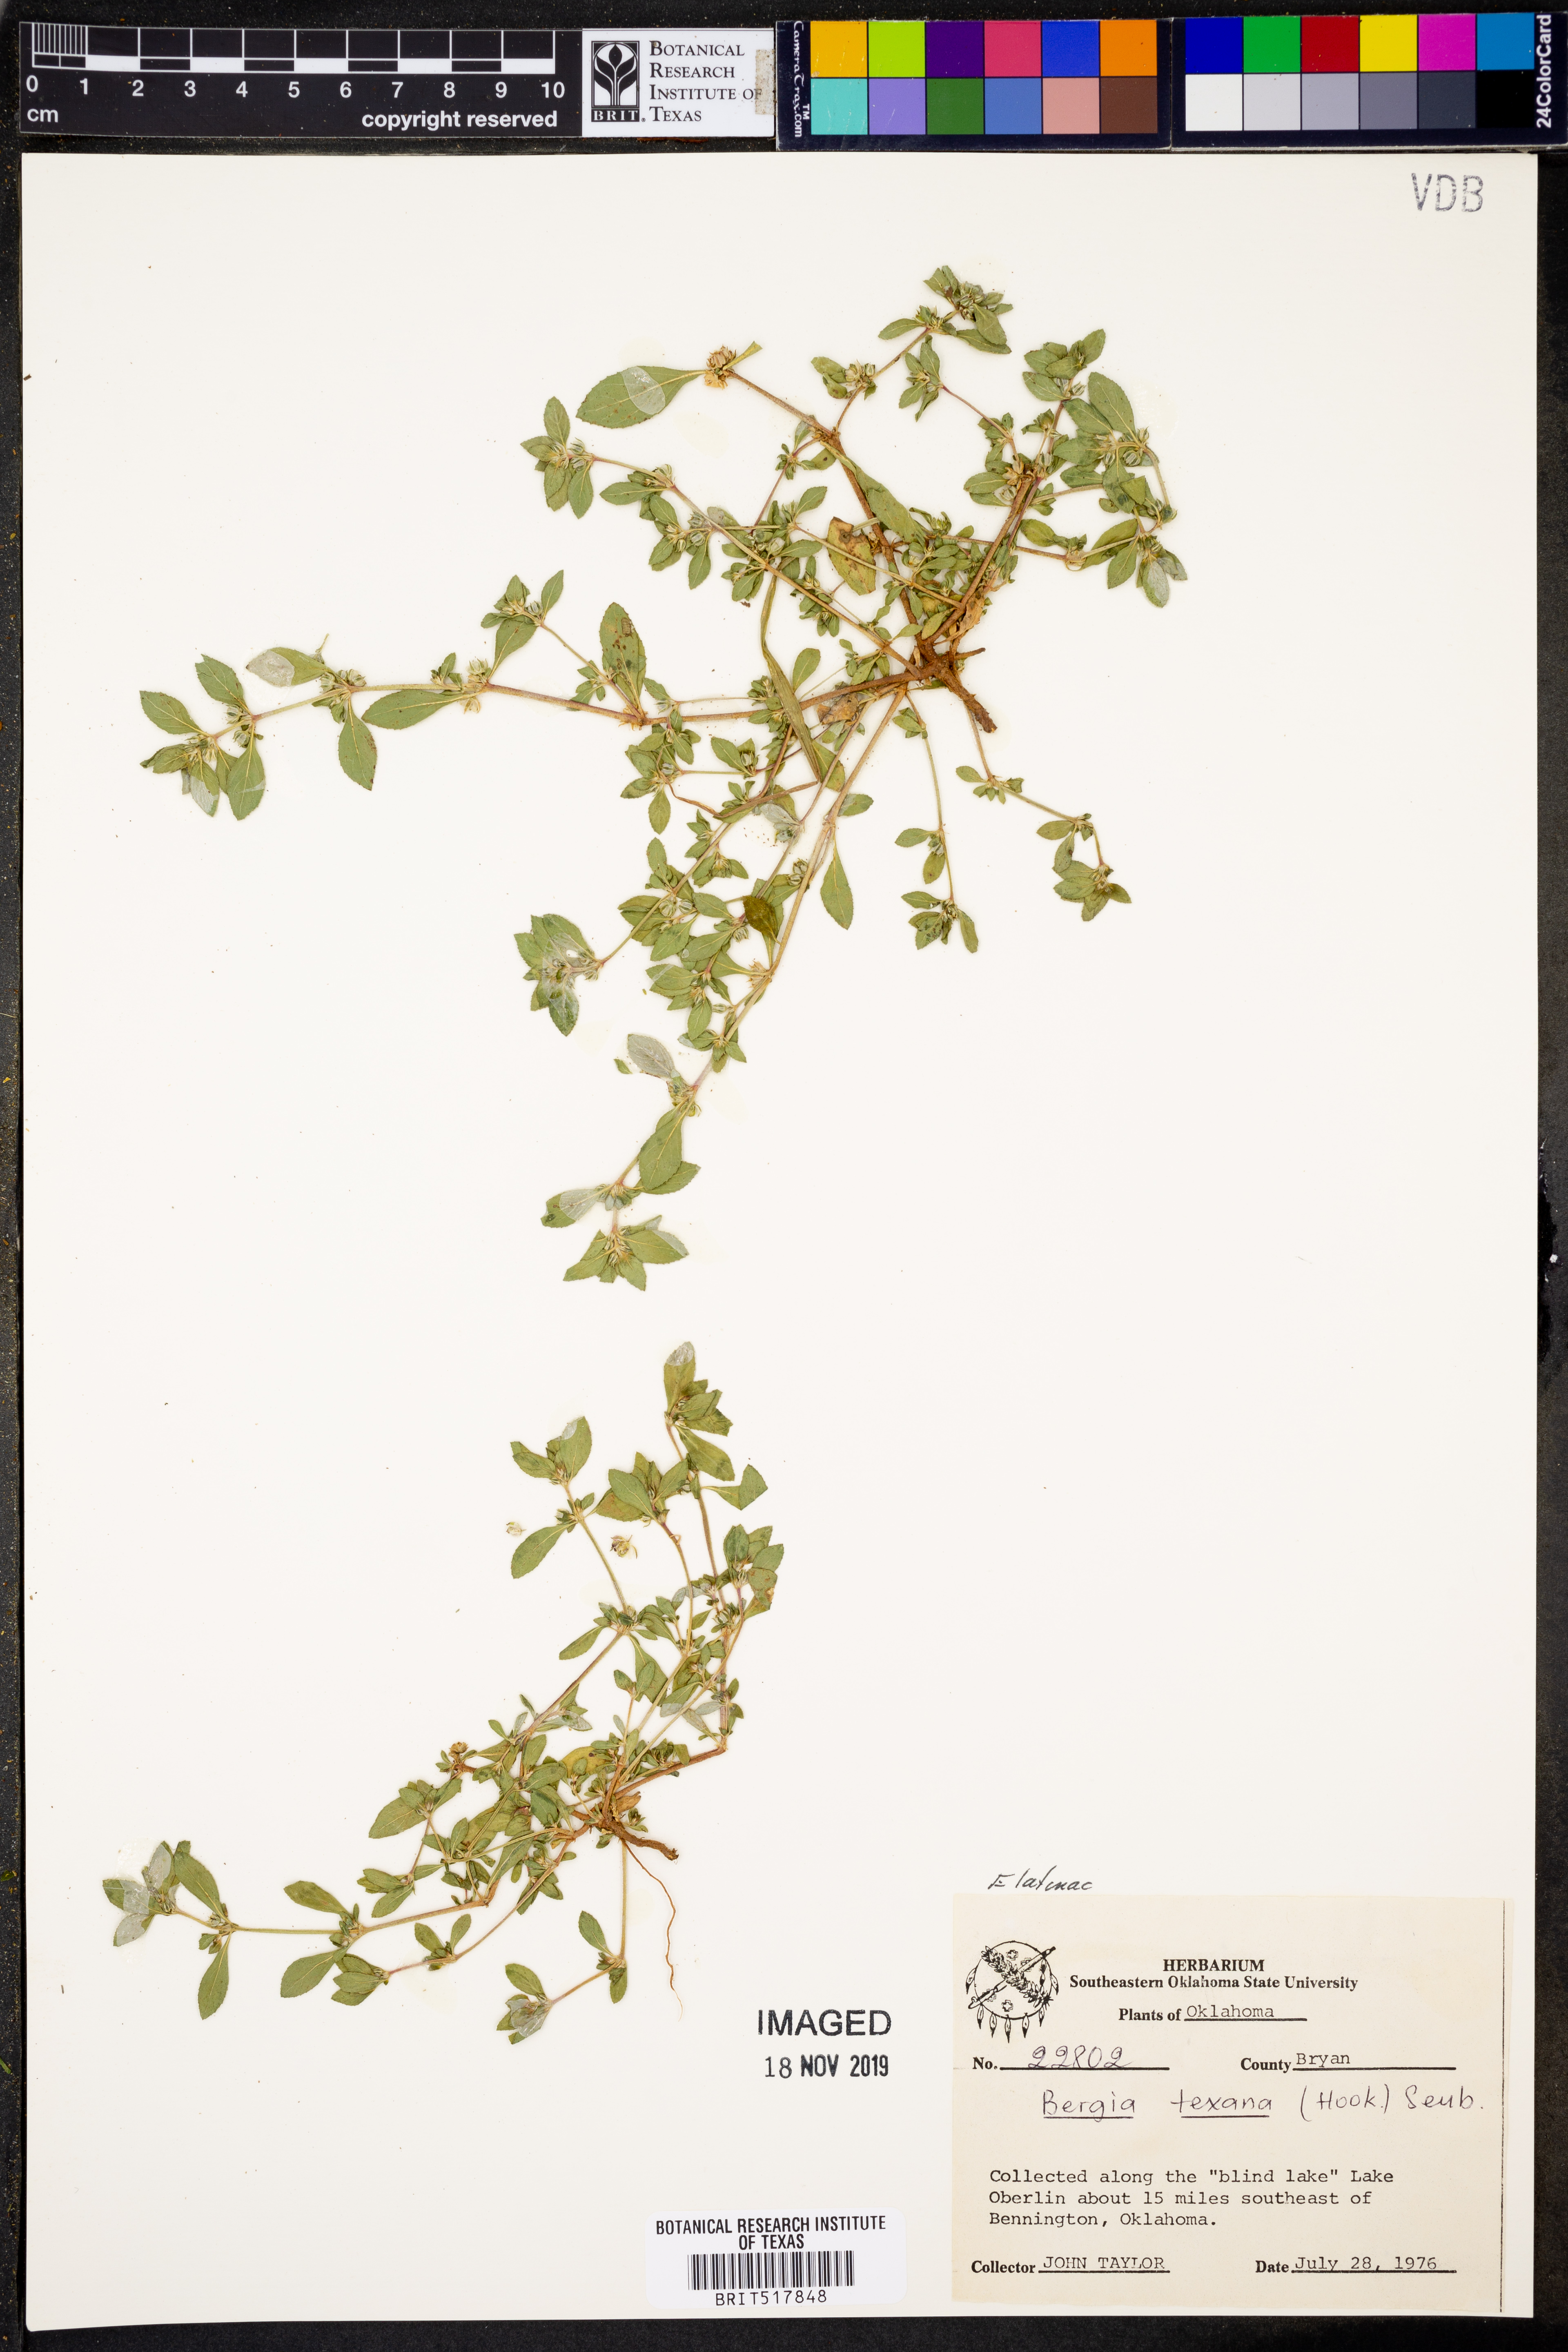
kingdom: Plantae
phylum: Tracheophyta
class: Magnoliopsida
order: Malpighiales
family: Elatinaceae
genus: Bergia
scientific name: Bergia texana
